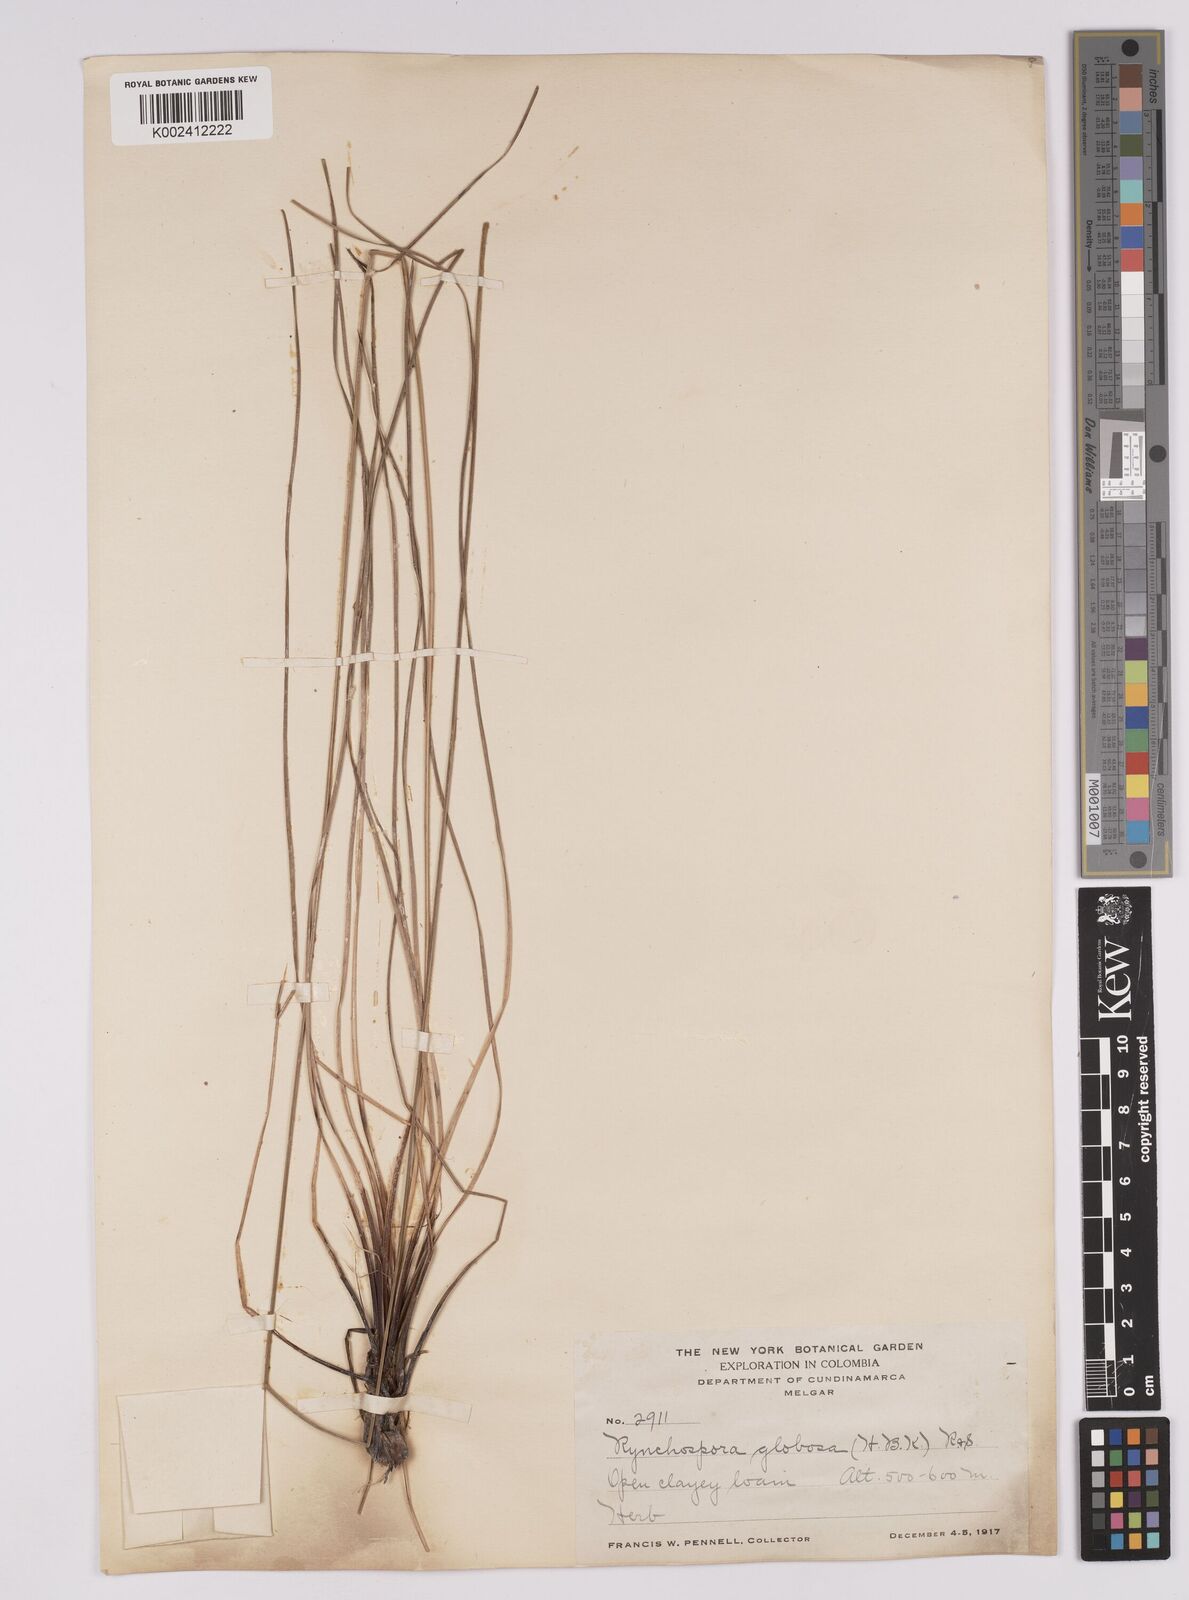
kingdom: Plantae
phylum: Tracheophyta
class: Liliopsida
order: Poales
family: Cyperaceae
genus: Rhynchospora
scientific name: Rhynchospora barbata
